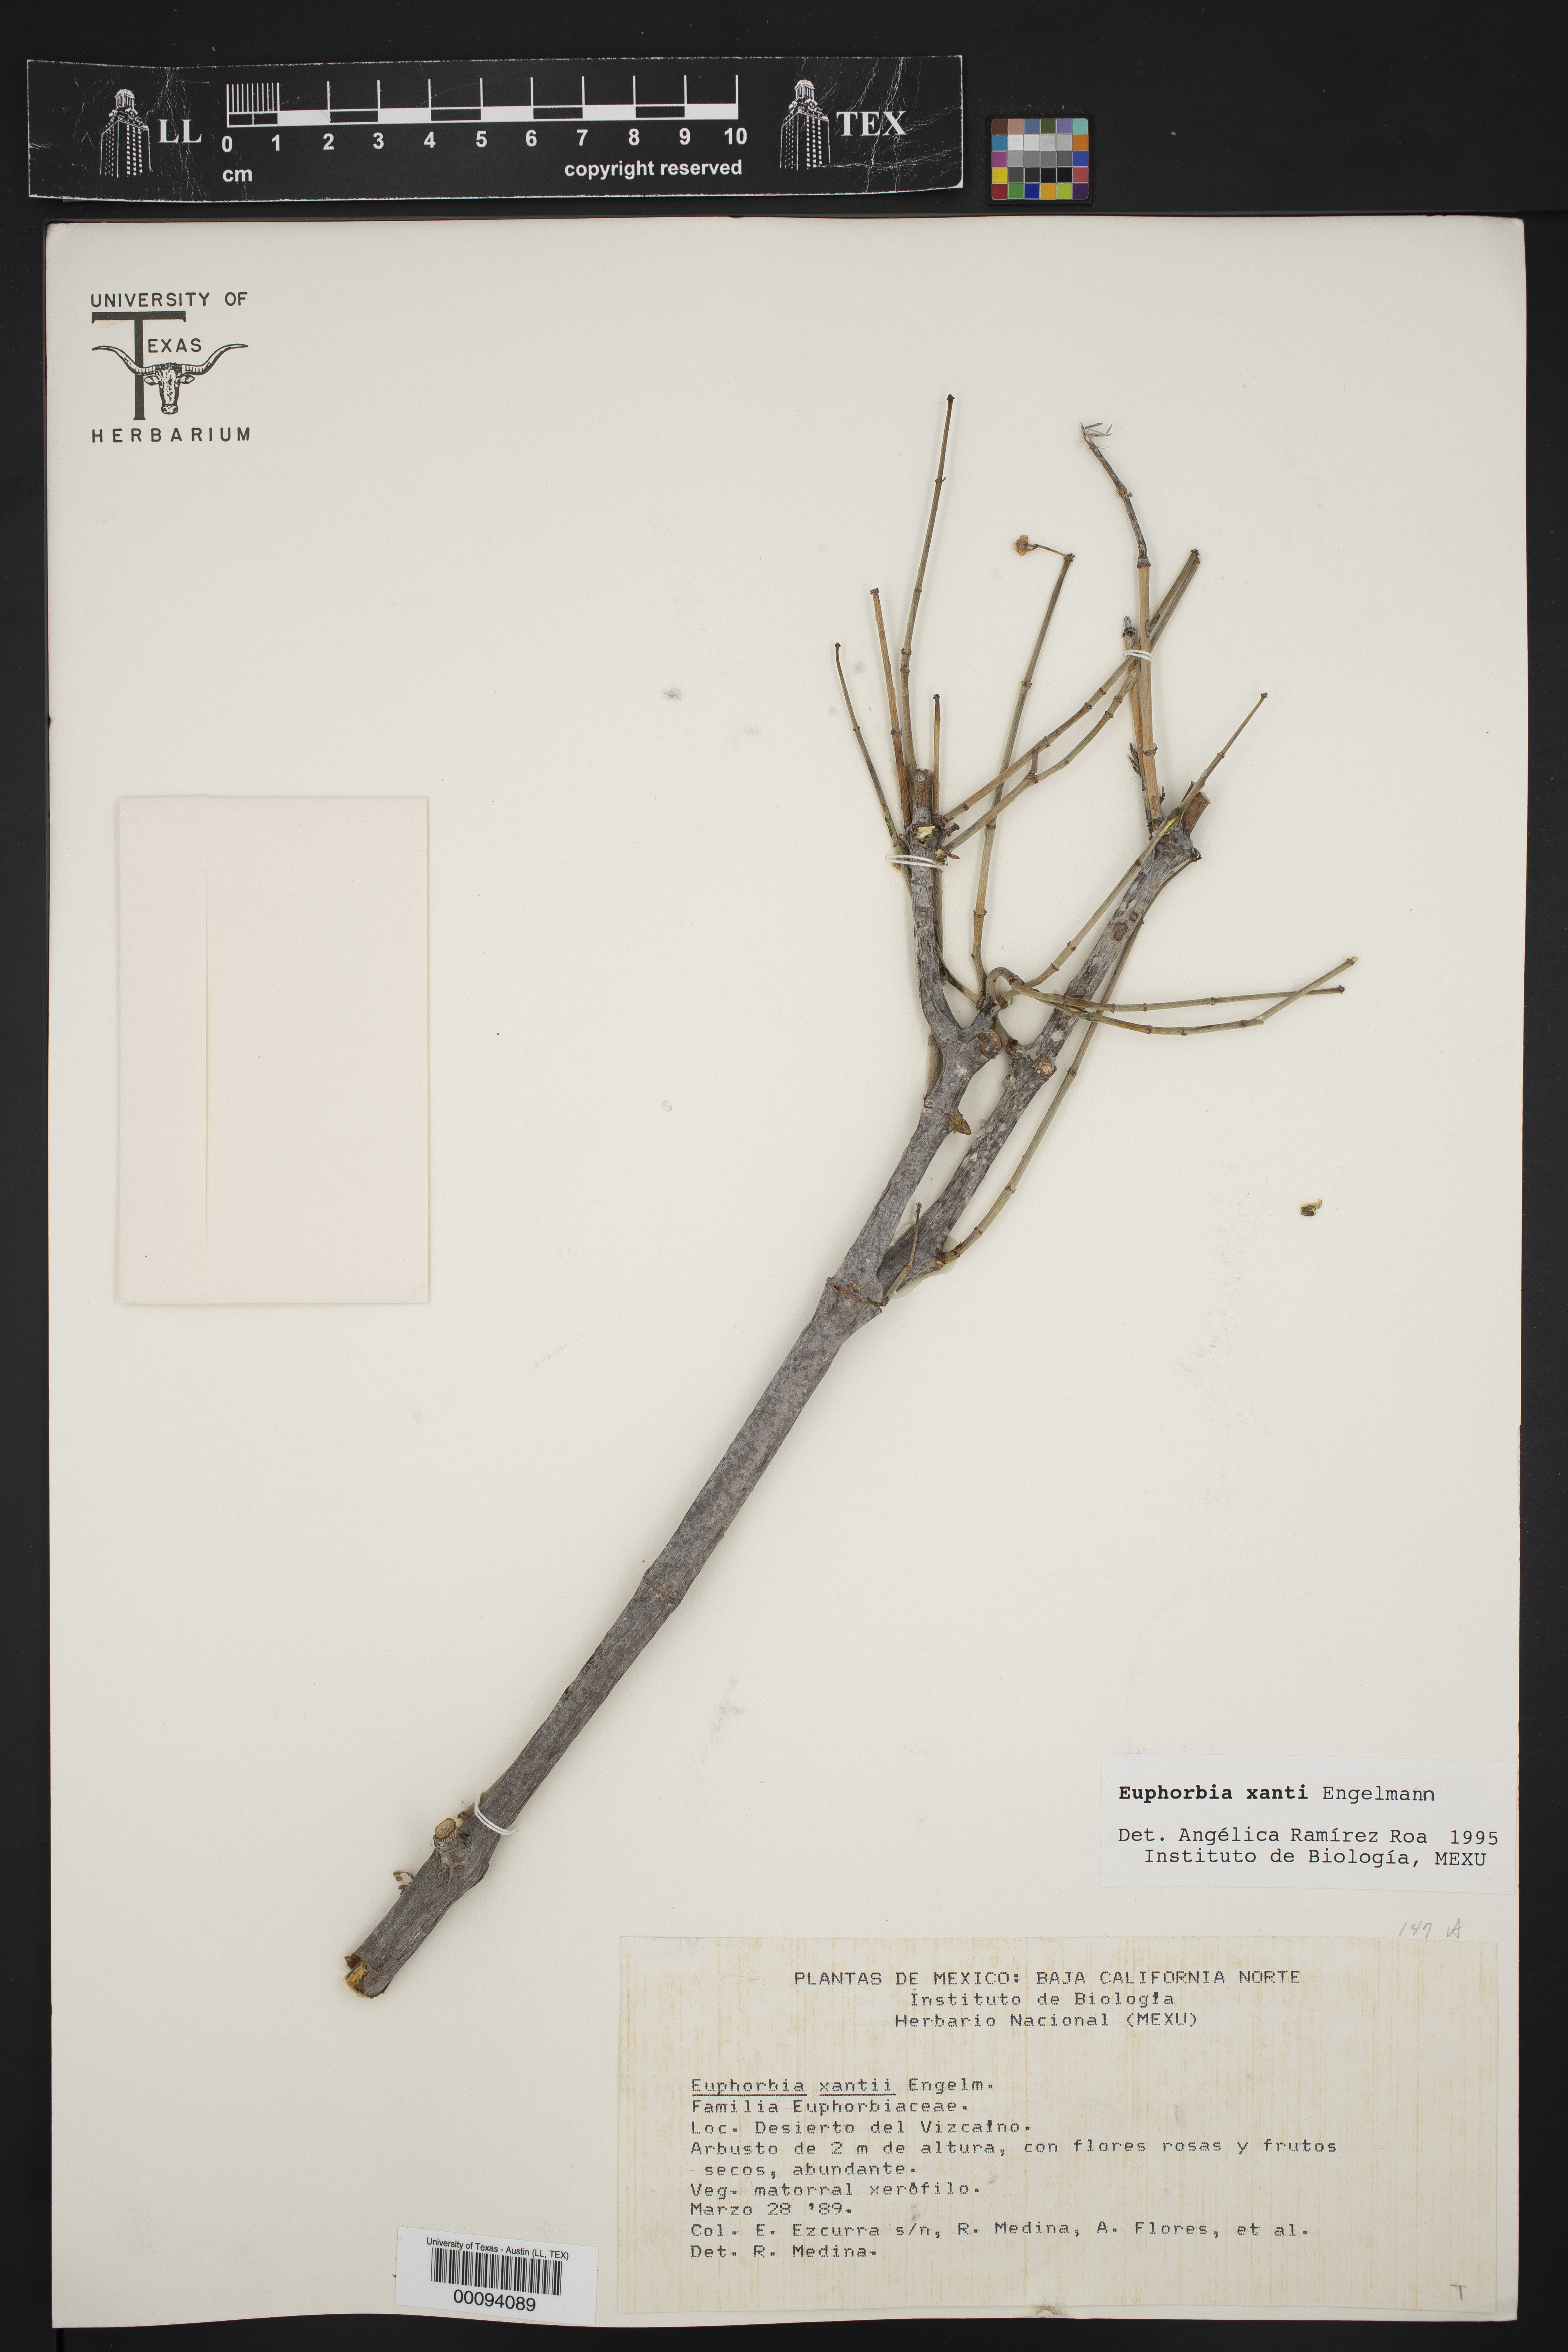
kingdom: Plantae
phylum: Tracheophyta
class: Magnoliopsida
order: Malpighiales
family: Euphorbiaceae
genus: Euphorbia
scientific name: Euphorbia xanti
